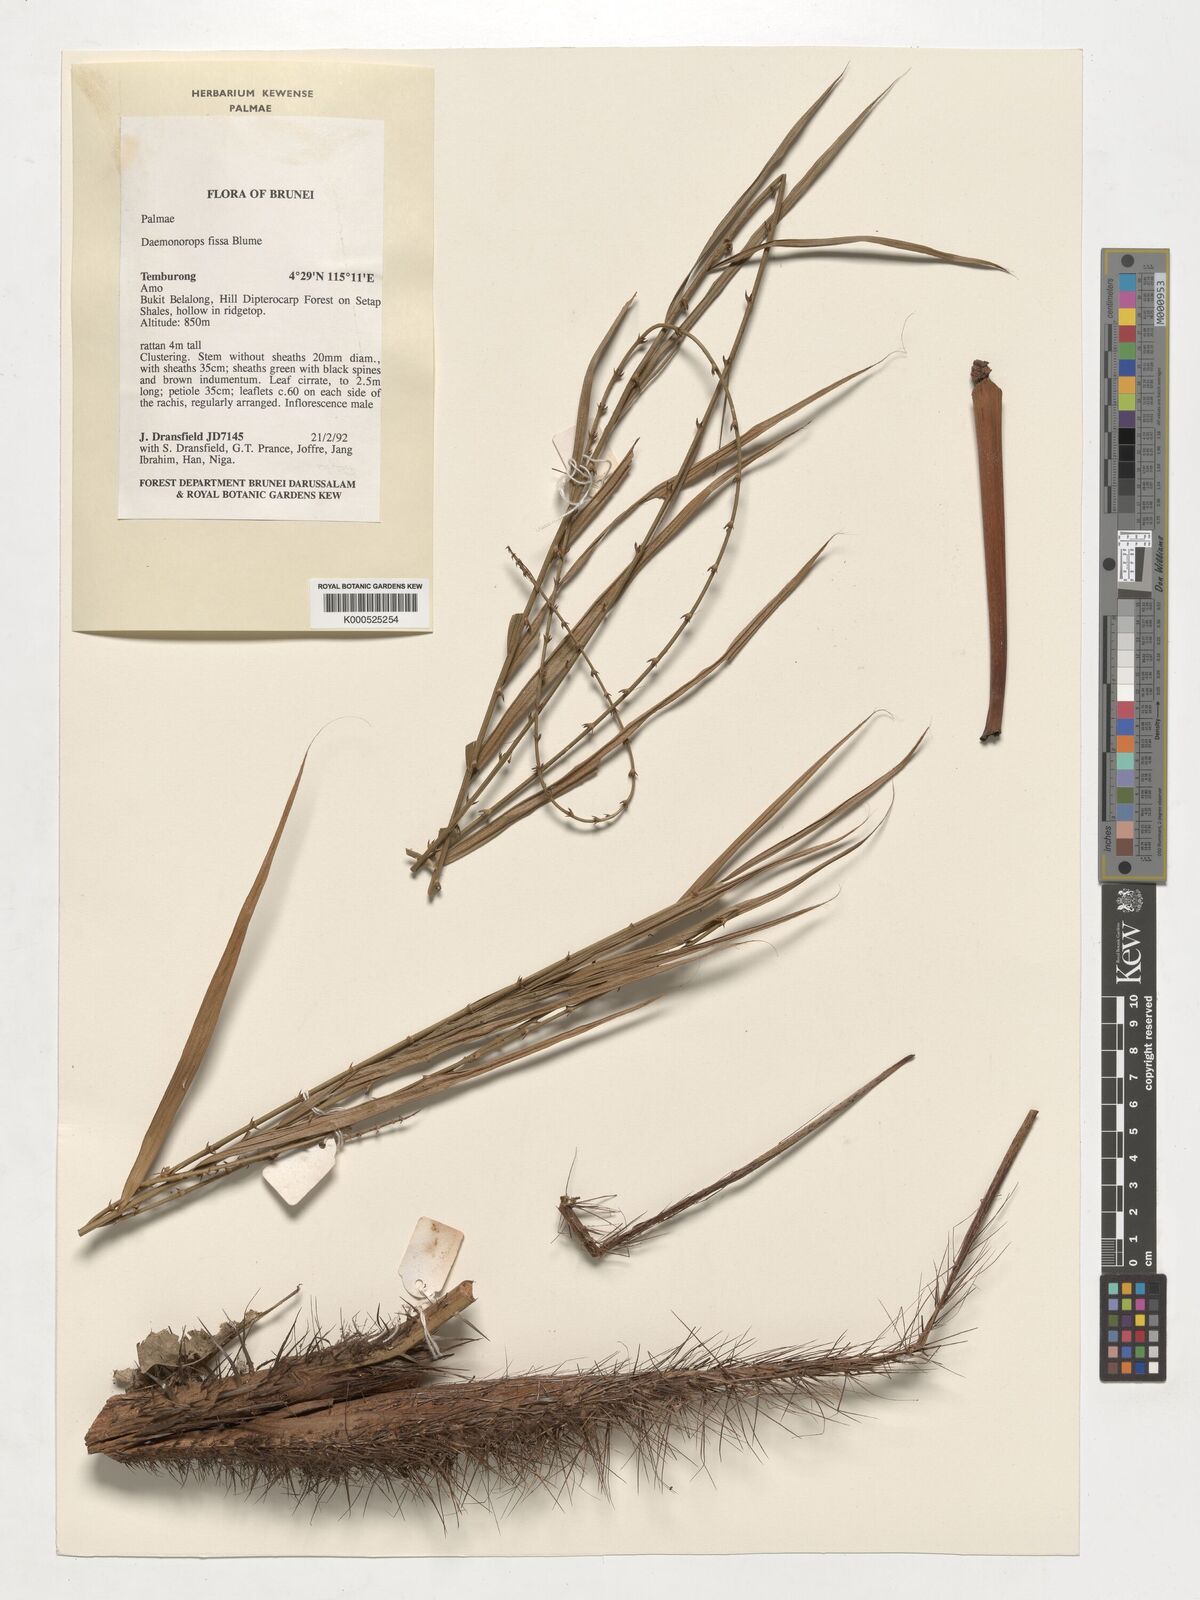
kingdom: Plantae
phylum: Tracheophyta
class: Liliopsida
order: Arecales
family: Arecaceae
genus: Calamus
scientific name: Calamus melanochaetes
